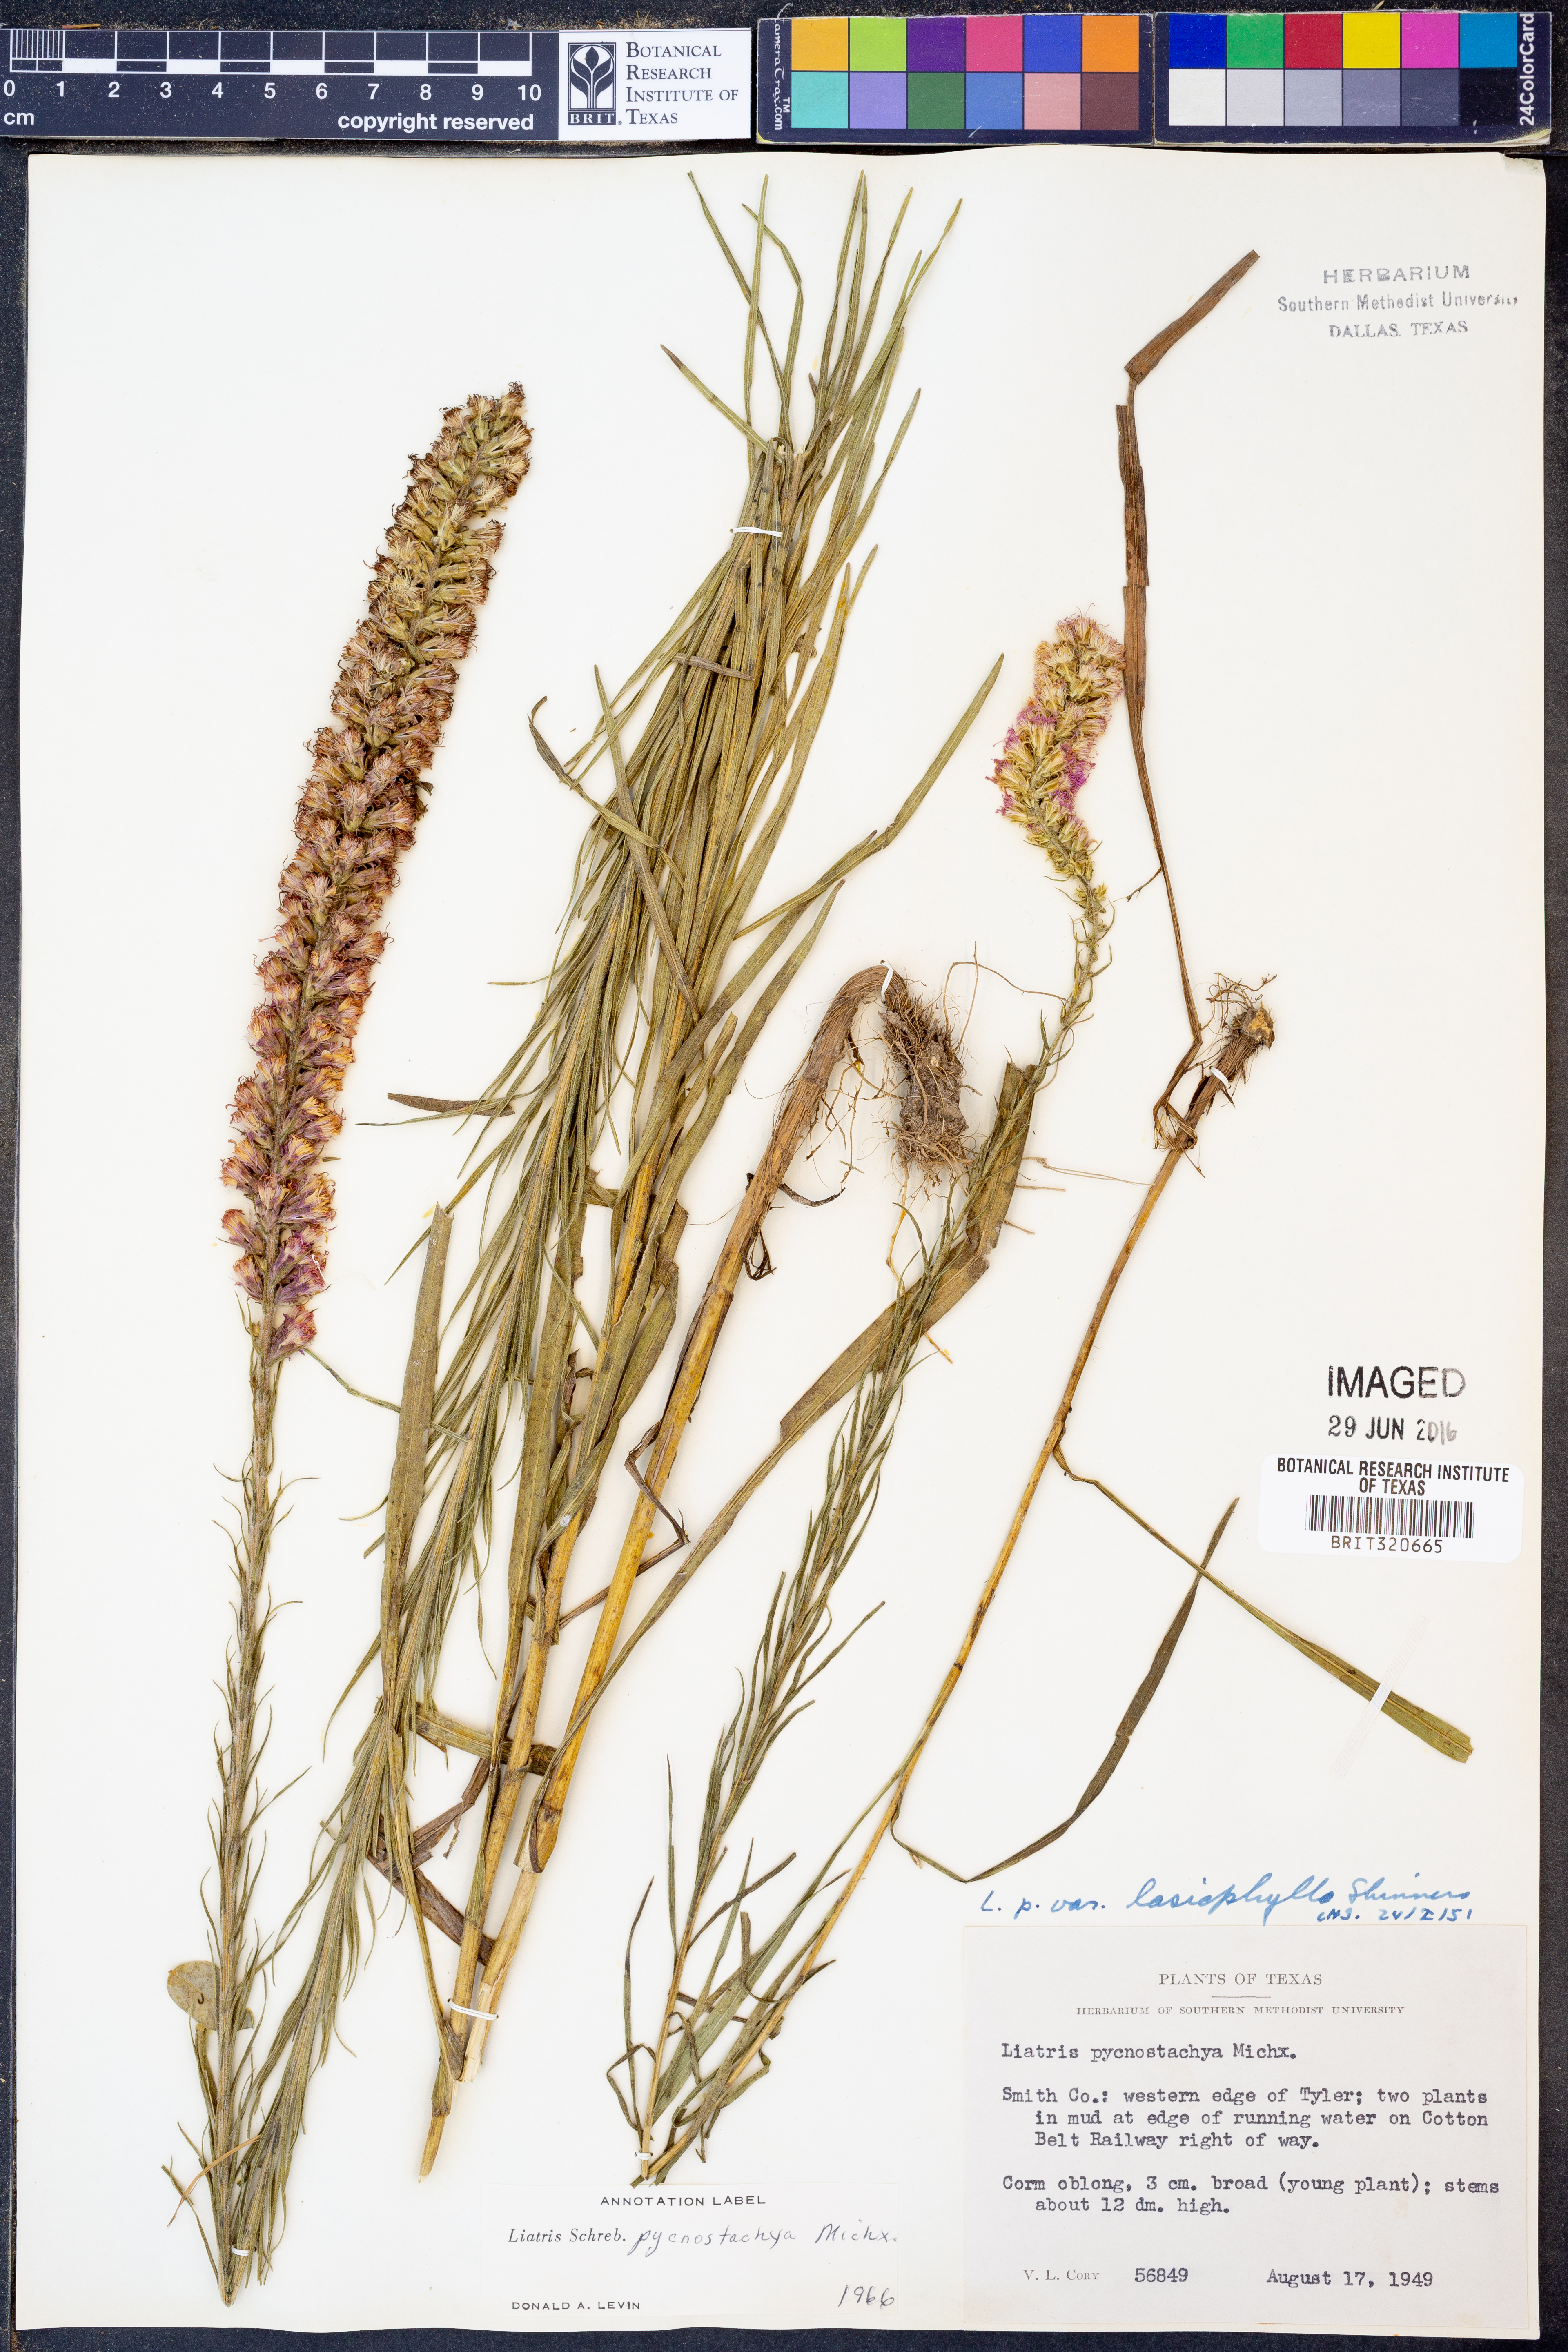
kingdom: Plantae
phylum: Tracheophyta
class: Magnoliopsida
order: Asterales
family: Asteraceae
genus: Liatris
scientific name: Liatris pycnostachya
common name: Cattail gayfeather
